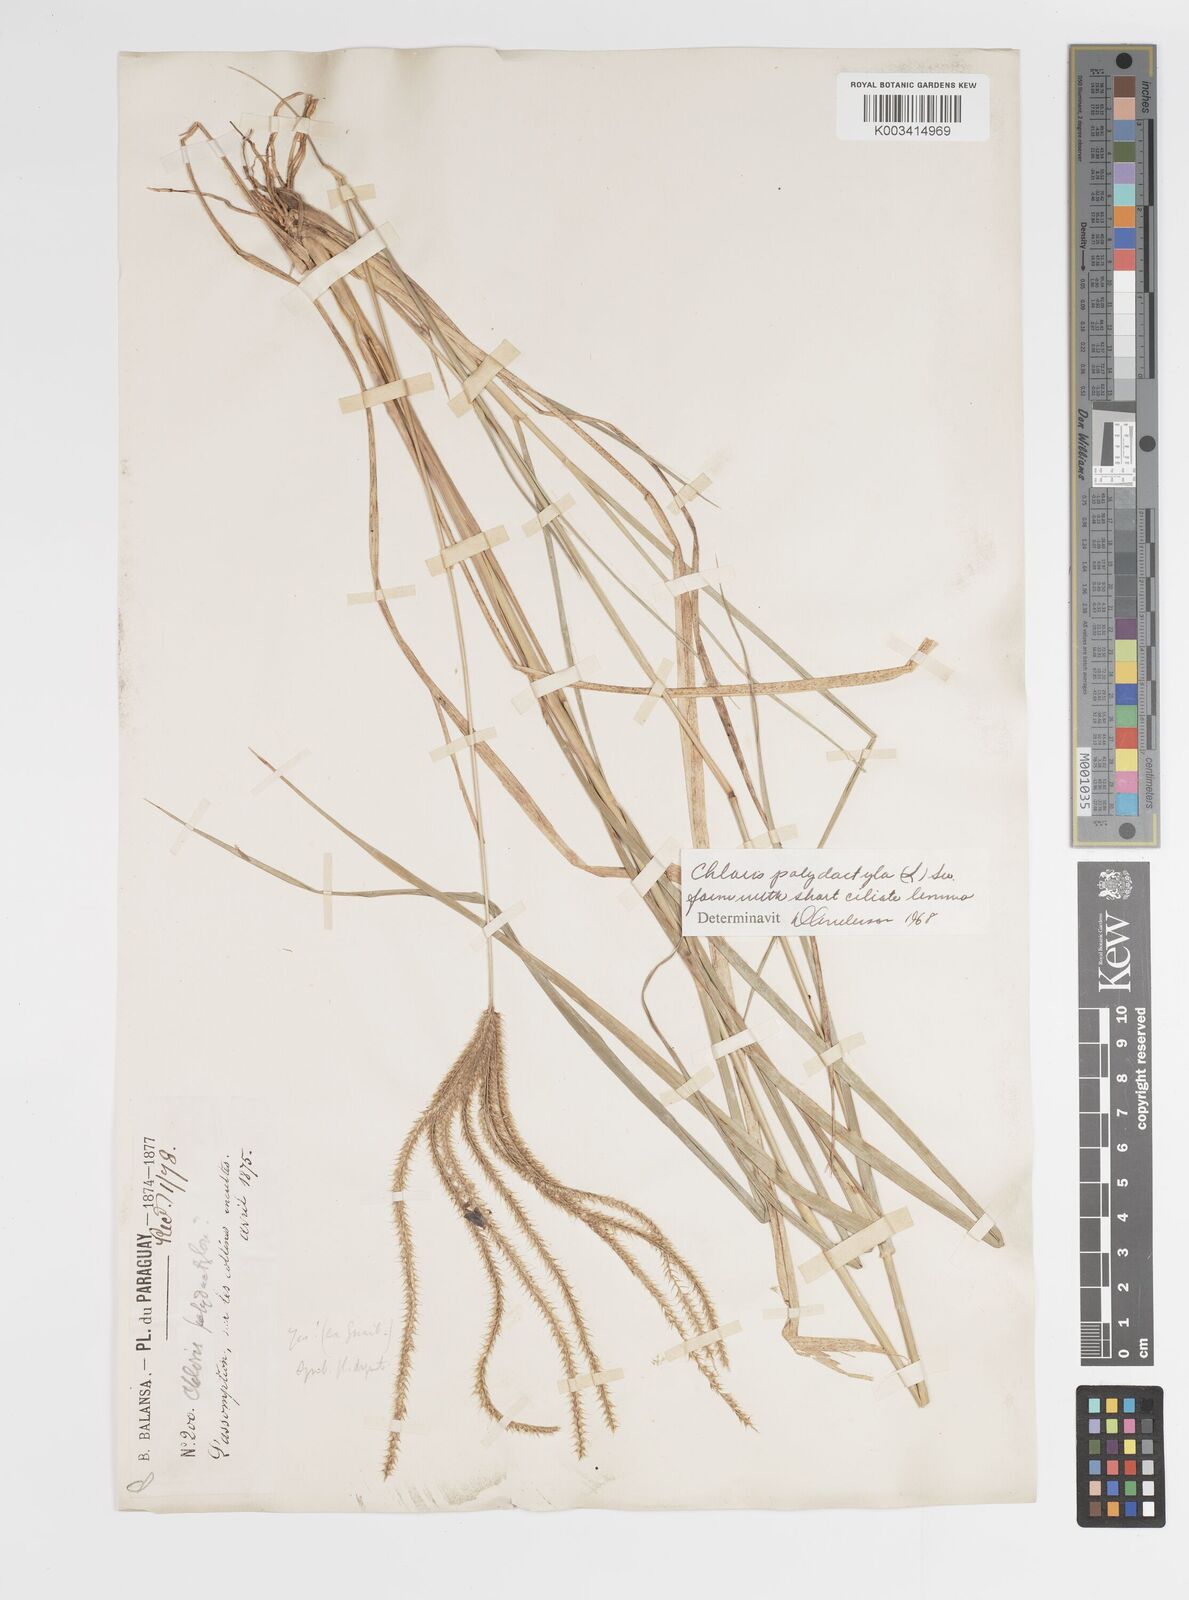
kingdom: Plantae
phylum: Tracheophyta
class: Liliopsida
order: Poales
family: Poaceae
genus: Stapfochloa
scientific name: Stapfochloa elata
